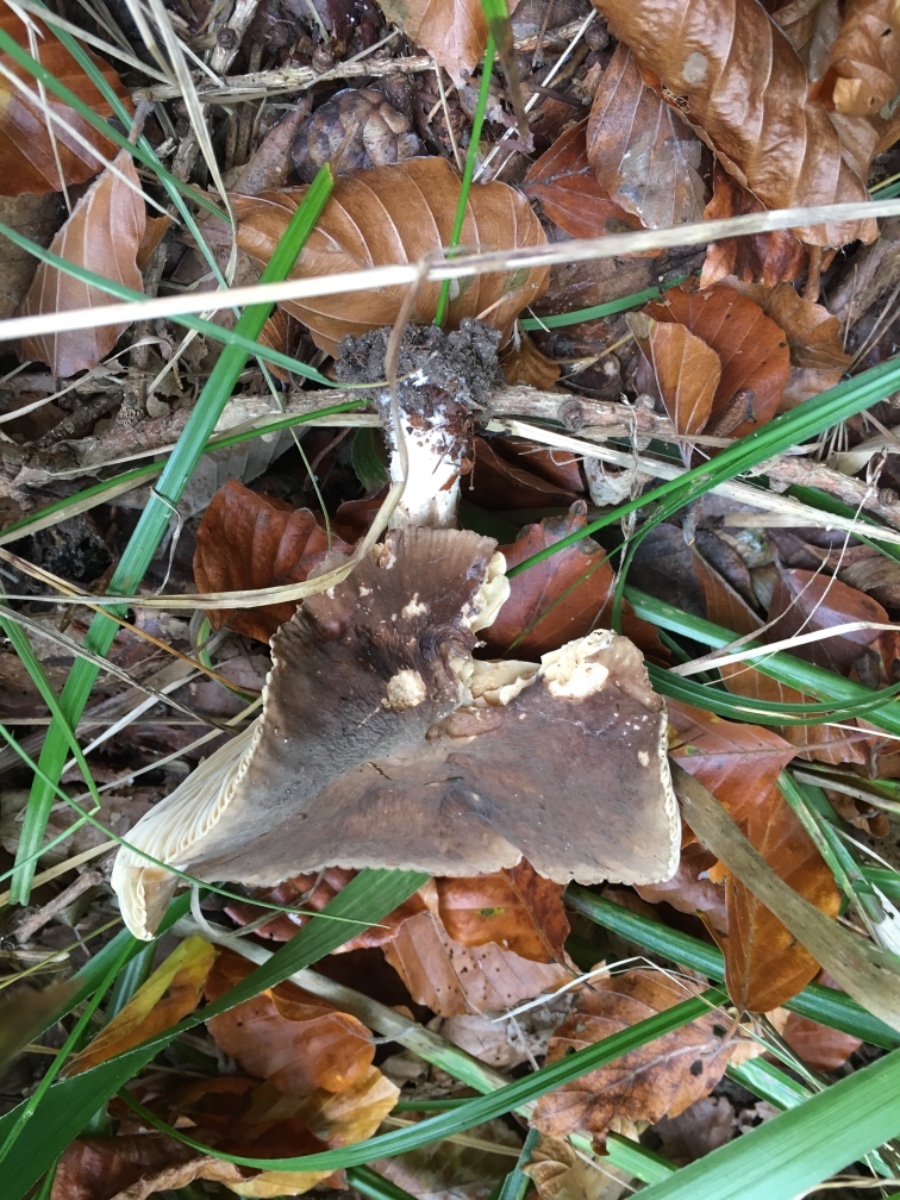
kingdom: Fungi
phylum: Basidiomycota
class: Agaricomycetes
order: Russulales
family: Russulaceae
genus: Lactarius
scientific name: Lactarius romagnesii
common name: fjernbladet mælkehat
